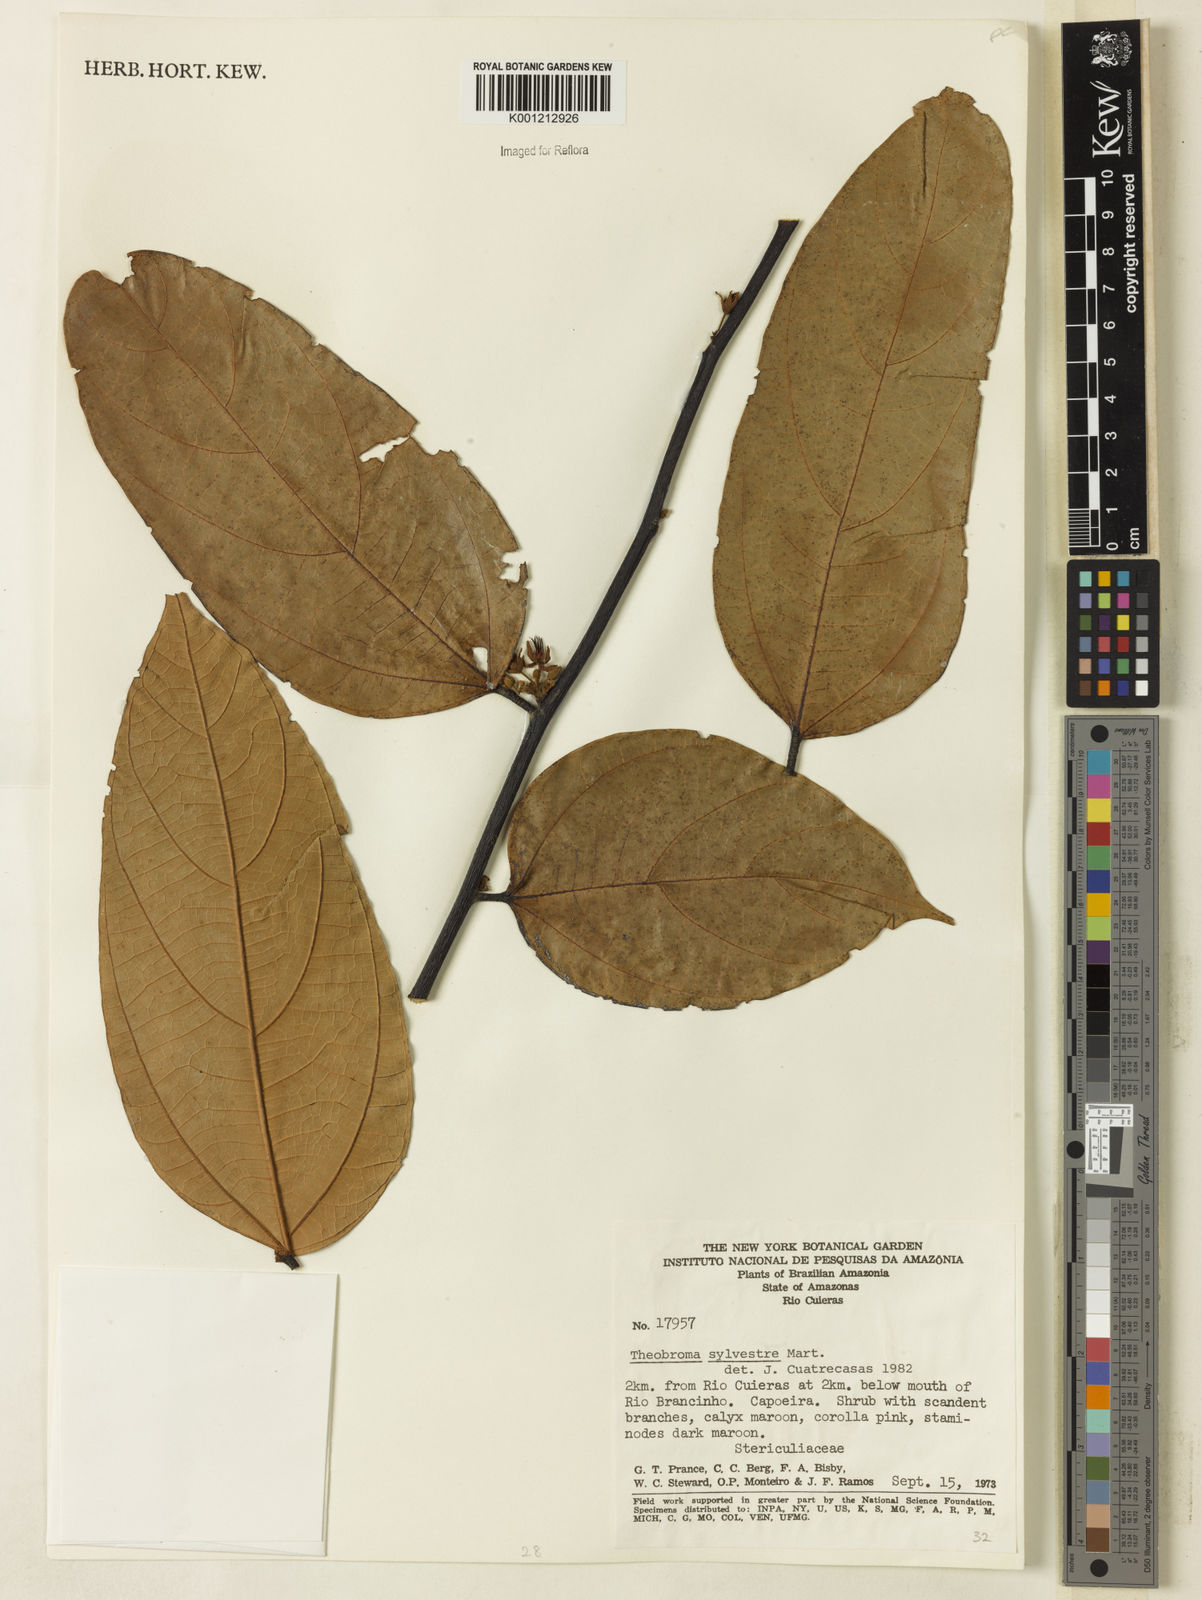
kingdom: Plantae
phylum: Tracheophyta
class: Magnoliopsida
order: Malvales
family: Malvaceae
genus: Theobroma
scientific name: Theobroma sylvestre
